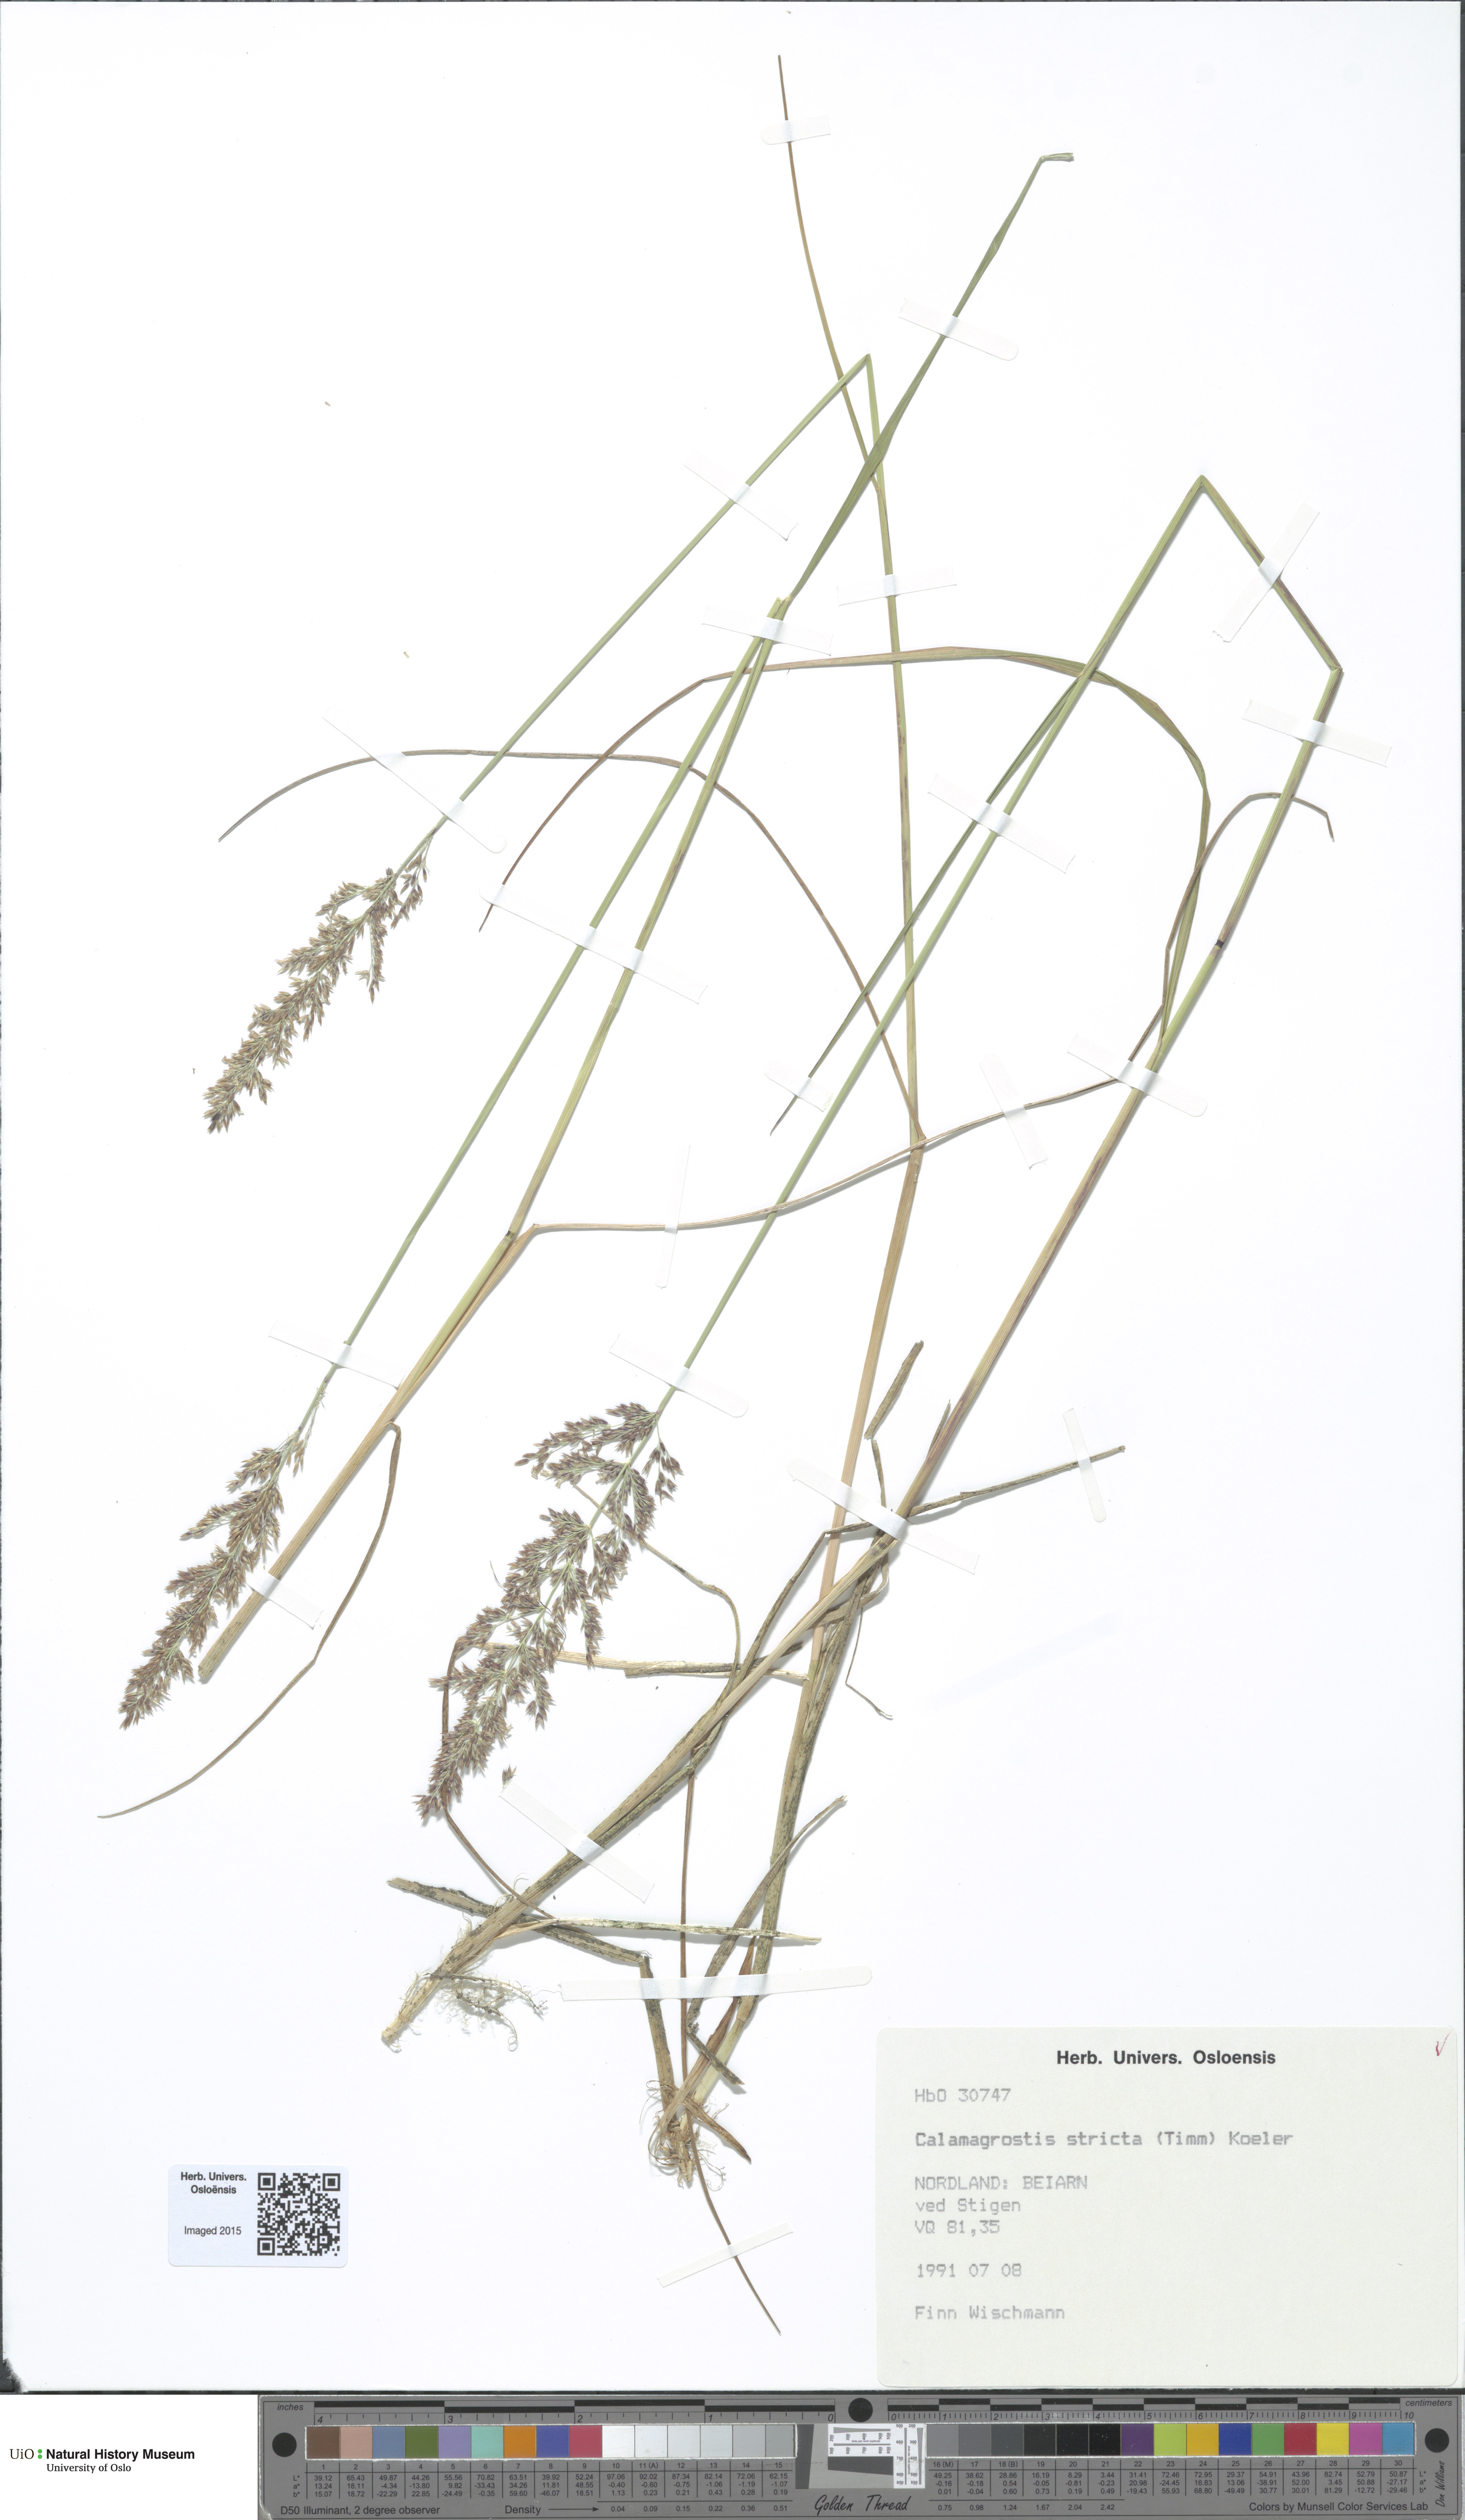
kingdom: Plantae
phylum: Tracheophyta
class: Liliopsida
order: Poales
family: Poaceae
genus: Achnatherum
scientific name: Achnatherum calamagrostis
